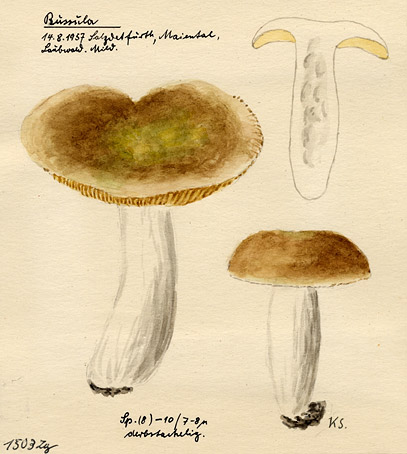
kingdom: Fungi
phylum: Basidiomycota
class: Agaricomycetes
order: Russulales
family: Russulaceae
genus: Russula
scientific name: Russula
